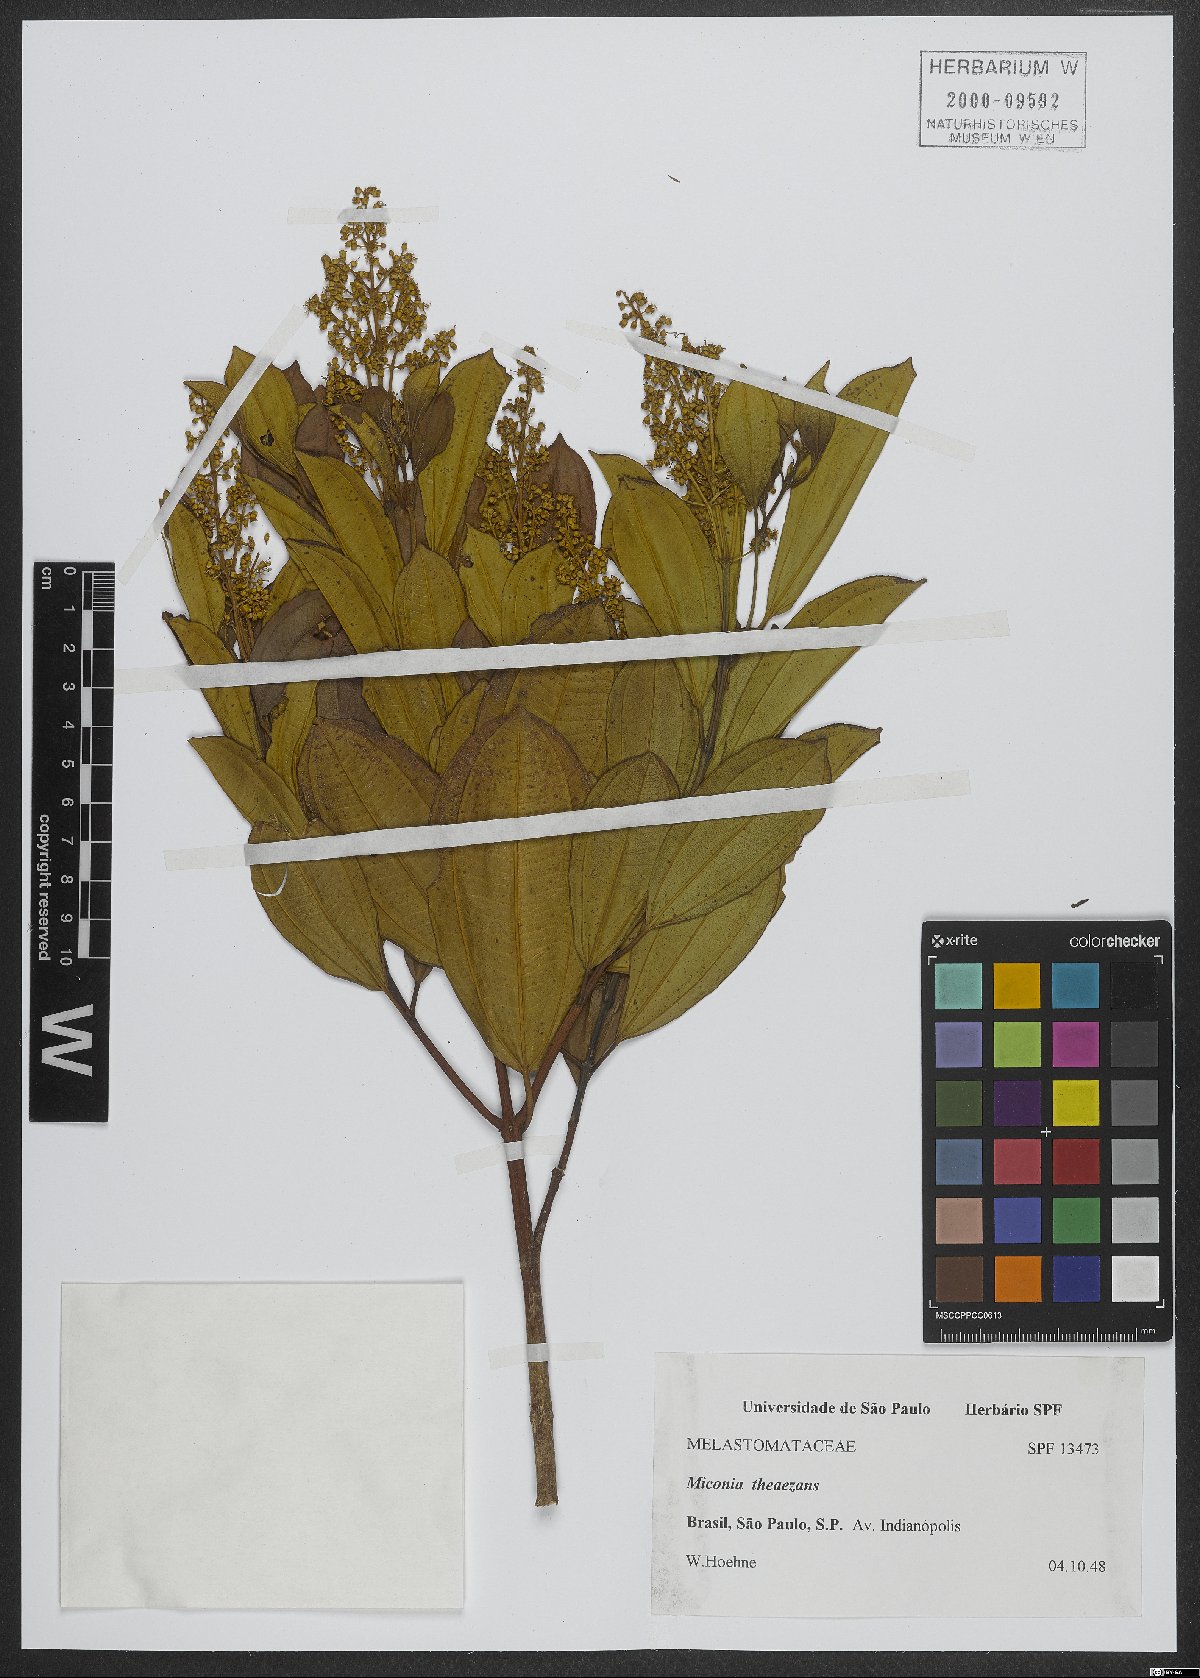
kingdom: Plantae
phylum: Tracheophyta
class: Magnoliopsida
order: Myrtales
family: Melastomataceae
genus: Miconia
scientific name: Miconia theizans
